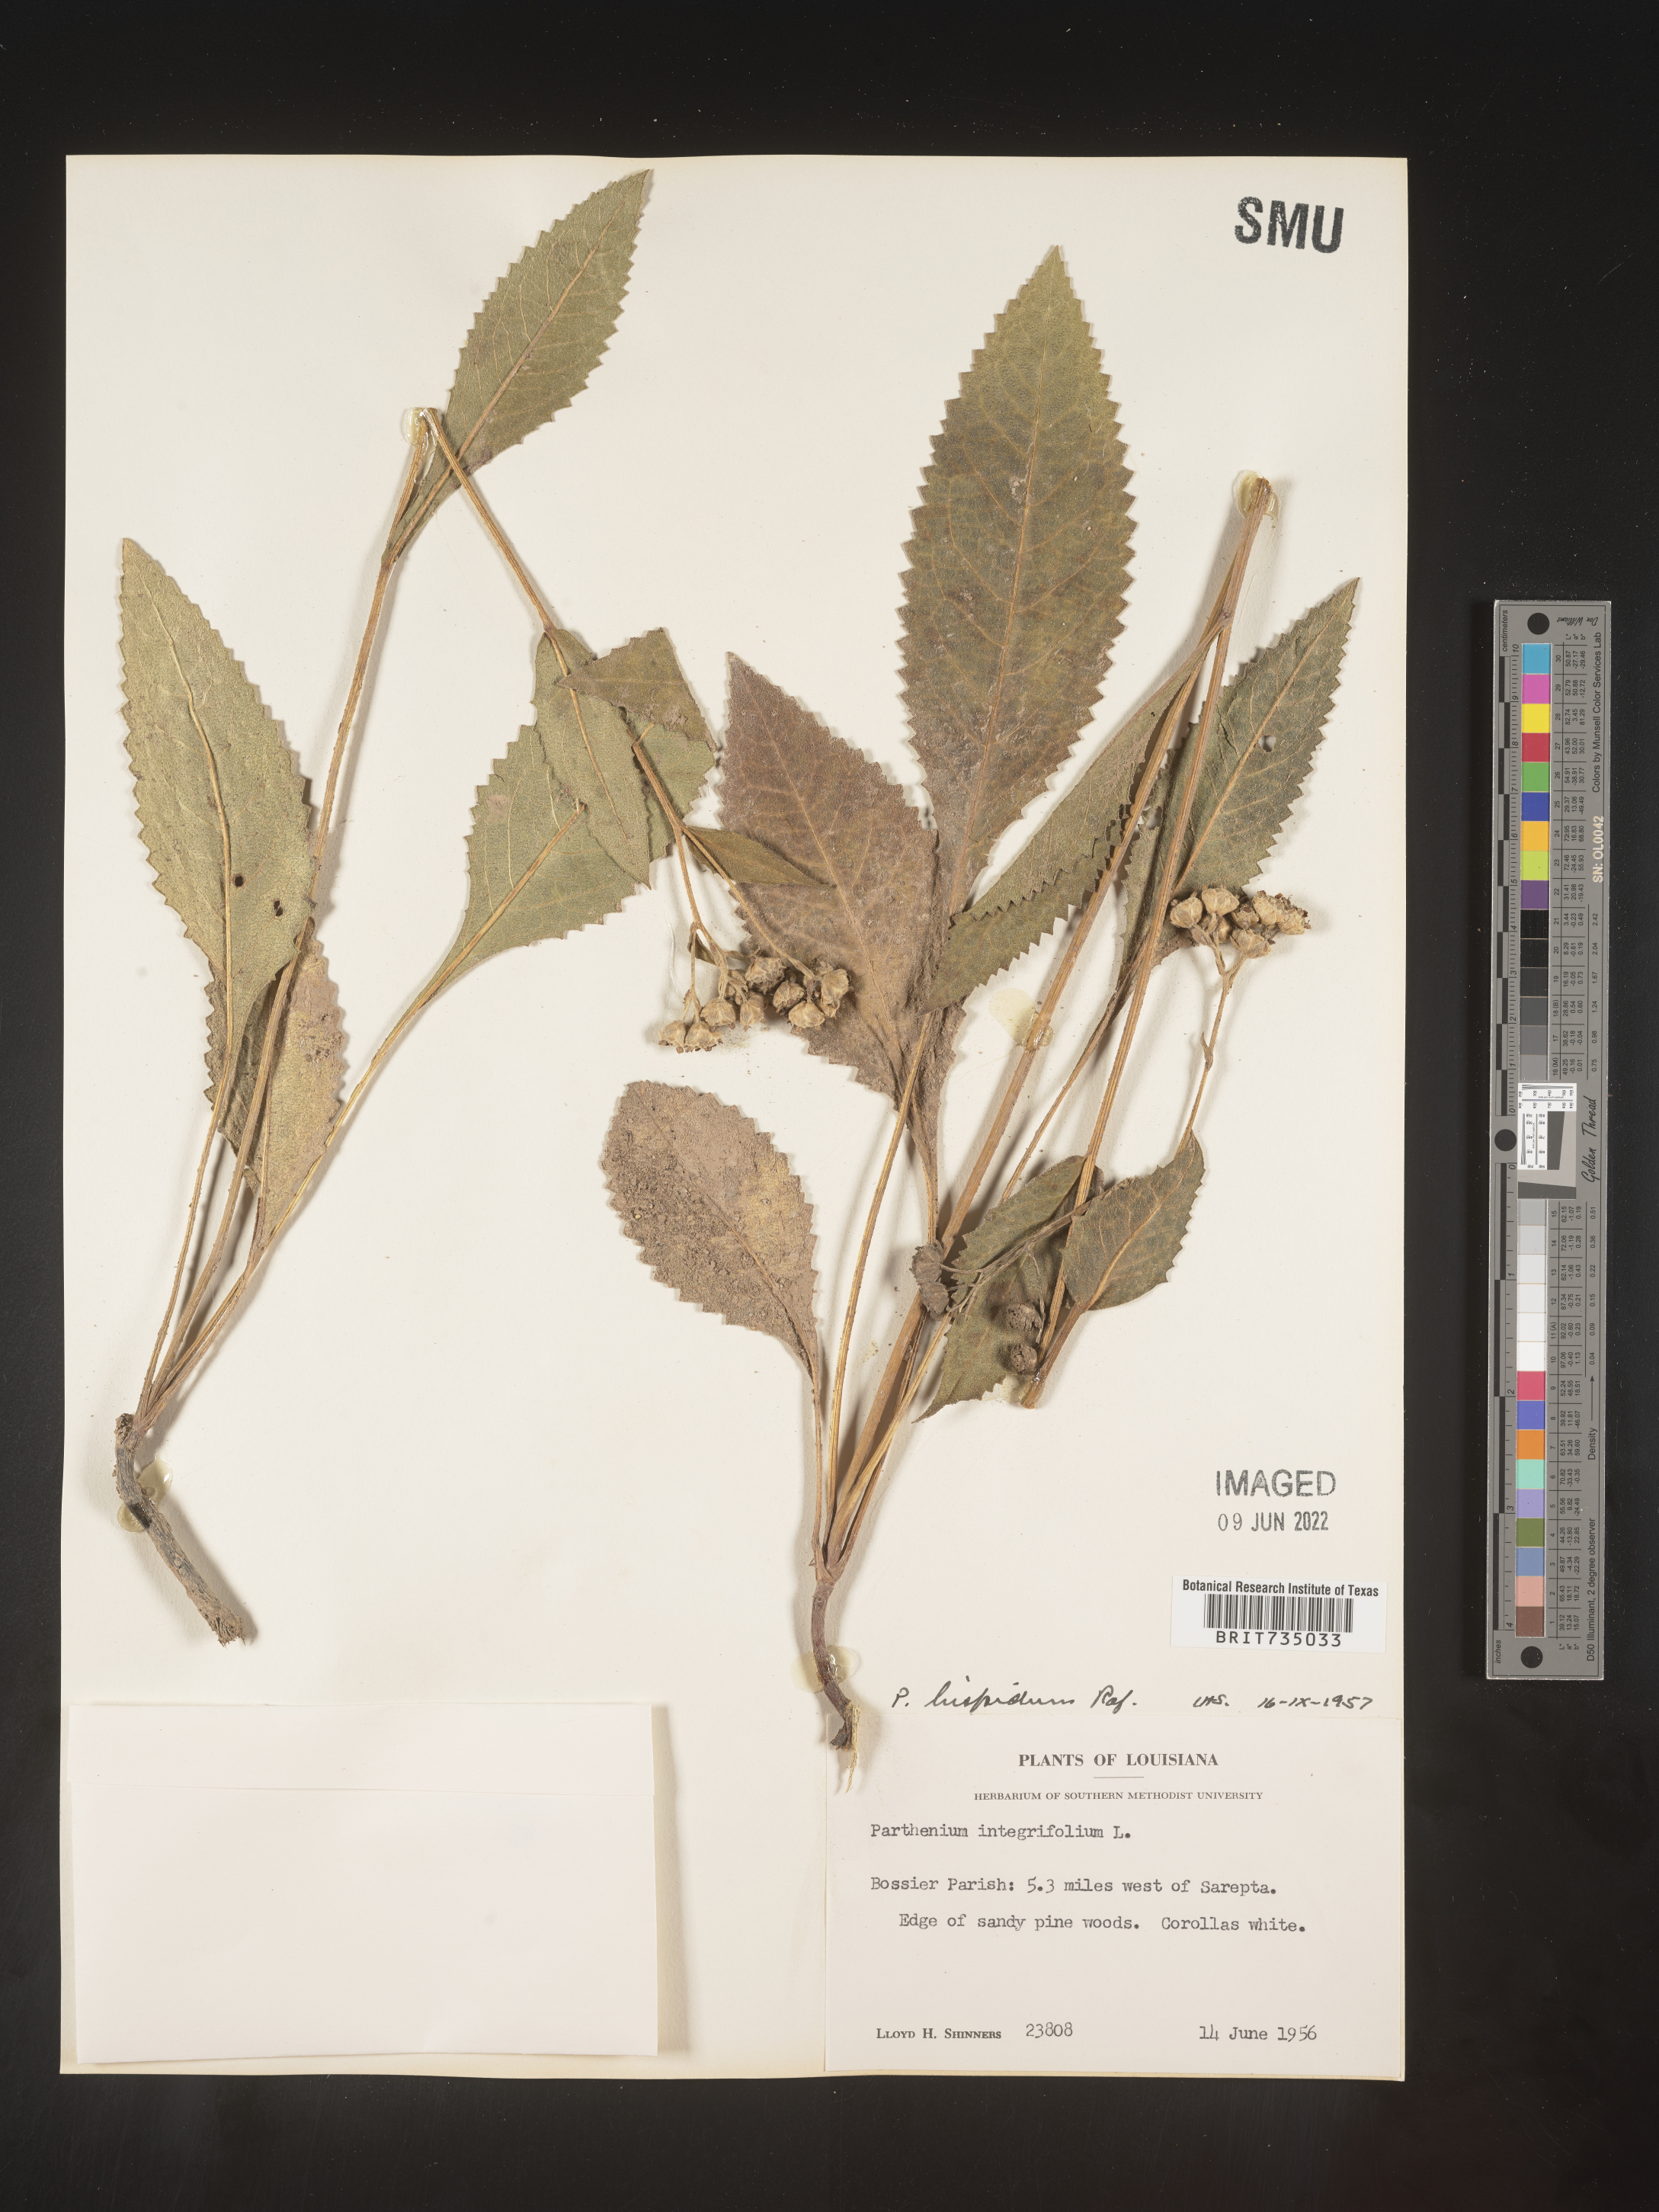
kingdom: Plantae
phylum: Tracheophyta
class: Magnoliopsida
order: Asterales
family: Asteraceae
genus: Parthenium
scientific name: Parthenium hispidum
